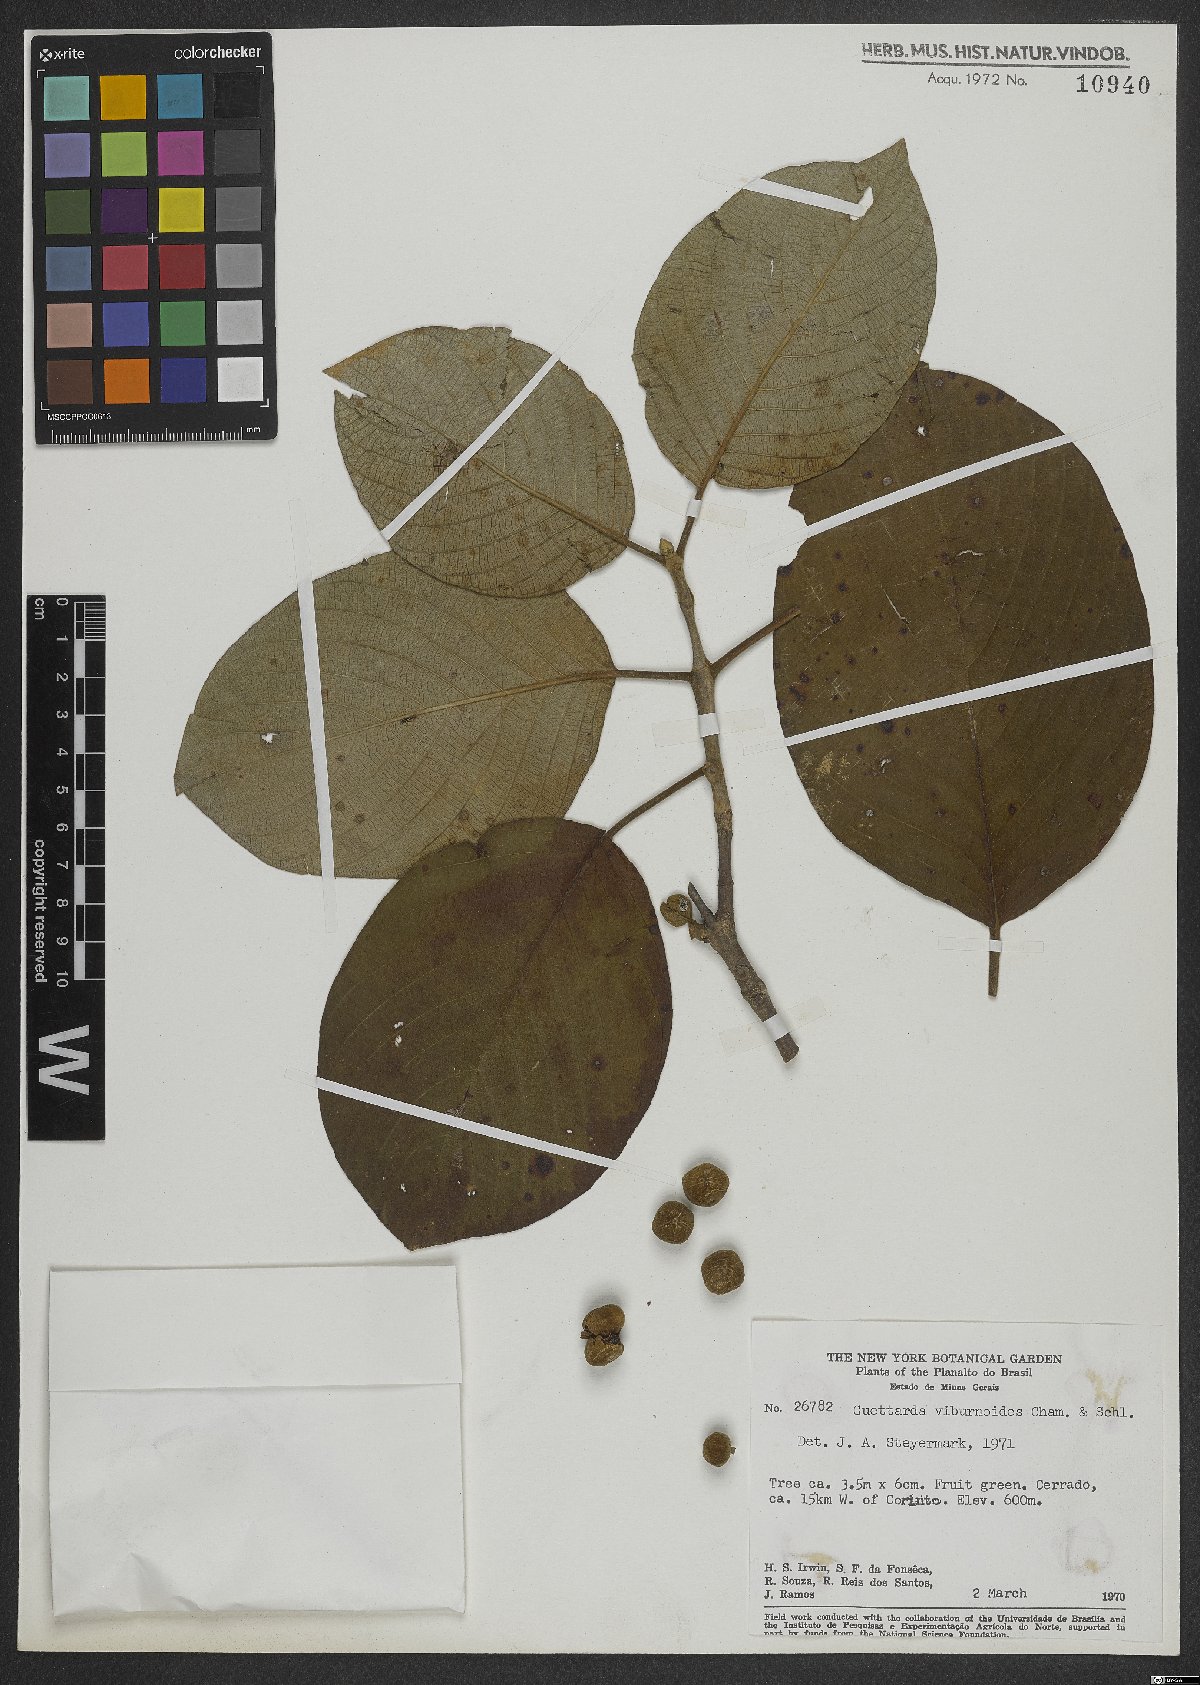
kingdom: Plantae
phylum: Tracheophyta
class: Magnoliopsida
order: Gentianales
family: Rubiaceae
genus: Guettarda
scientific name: Guettarda viburnoides
